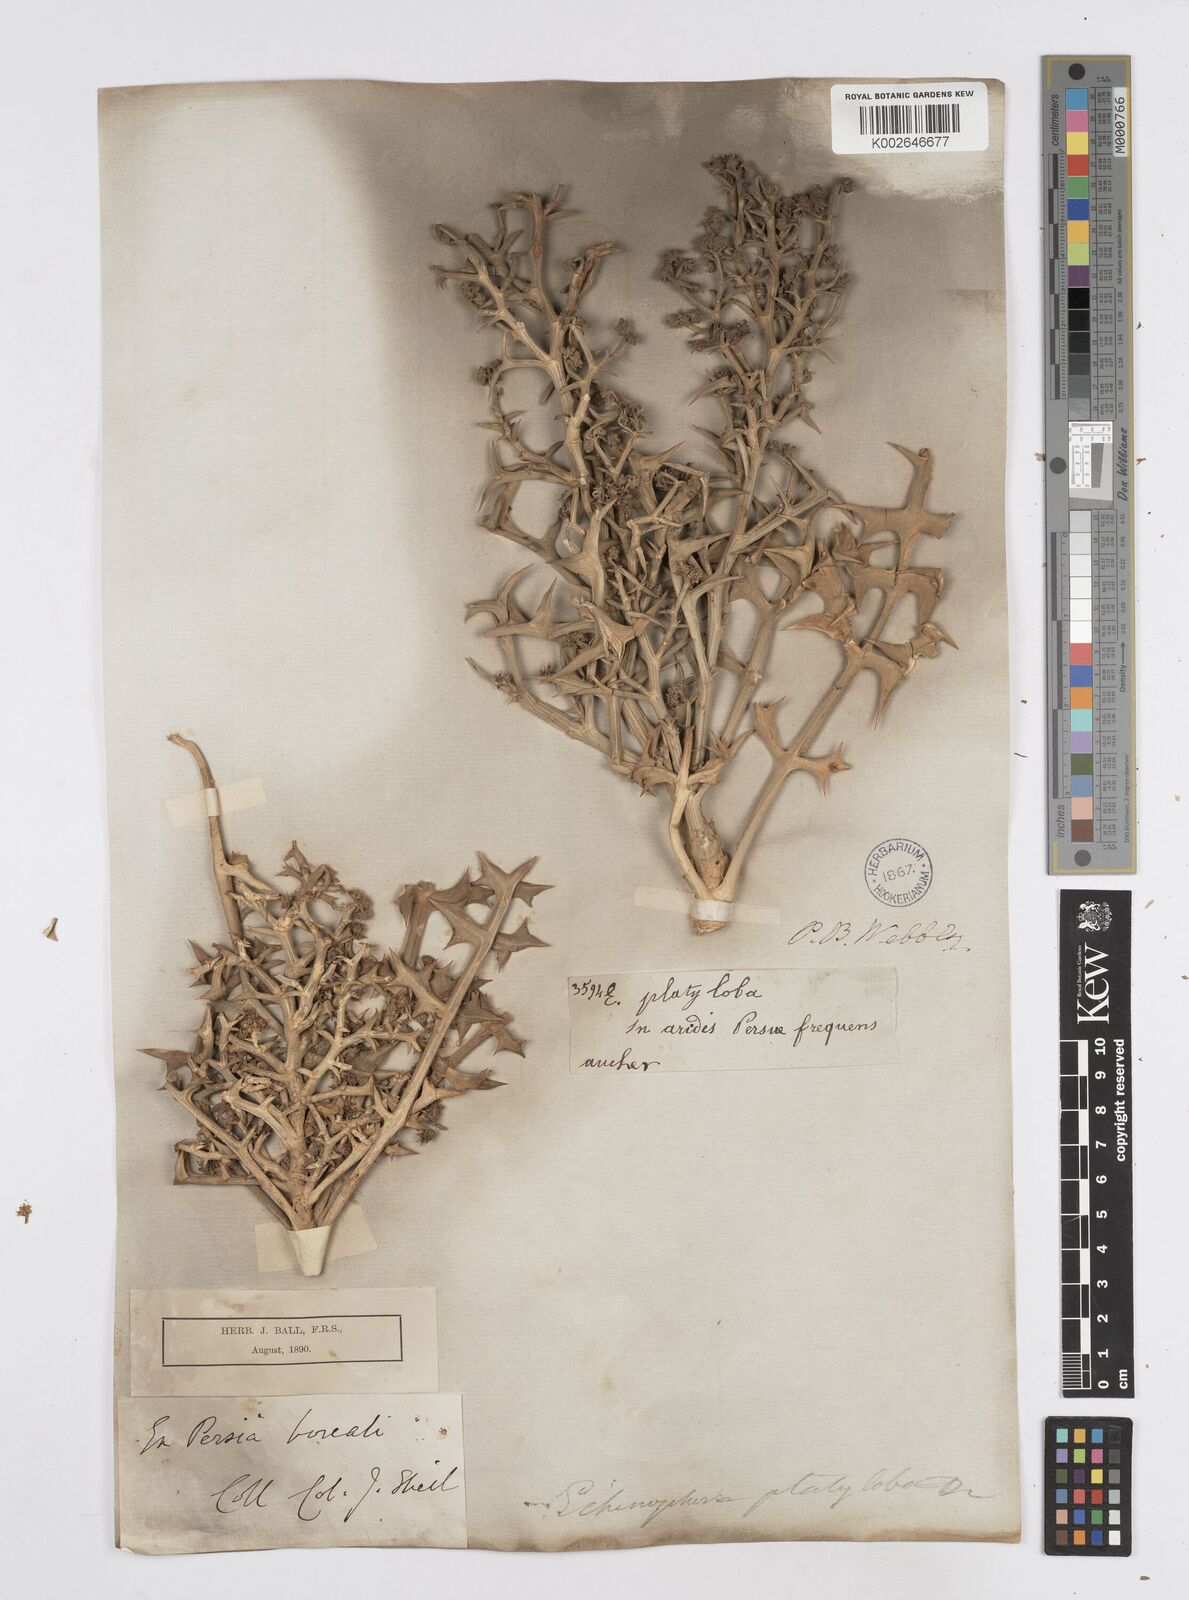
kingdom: Plantae
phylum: Tracheophyta
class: Magnoliopsida
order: Apiales
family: Apiaceae
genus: Echinophora
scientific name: Echinophora platyloba
